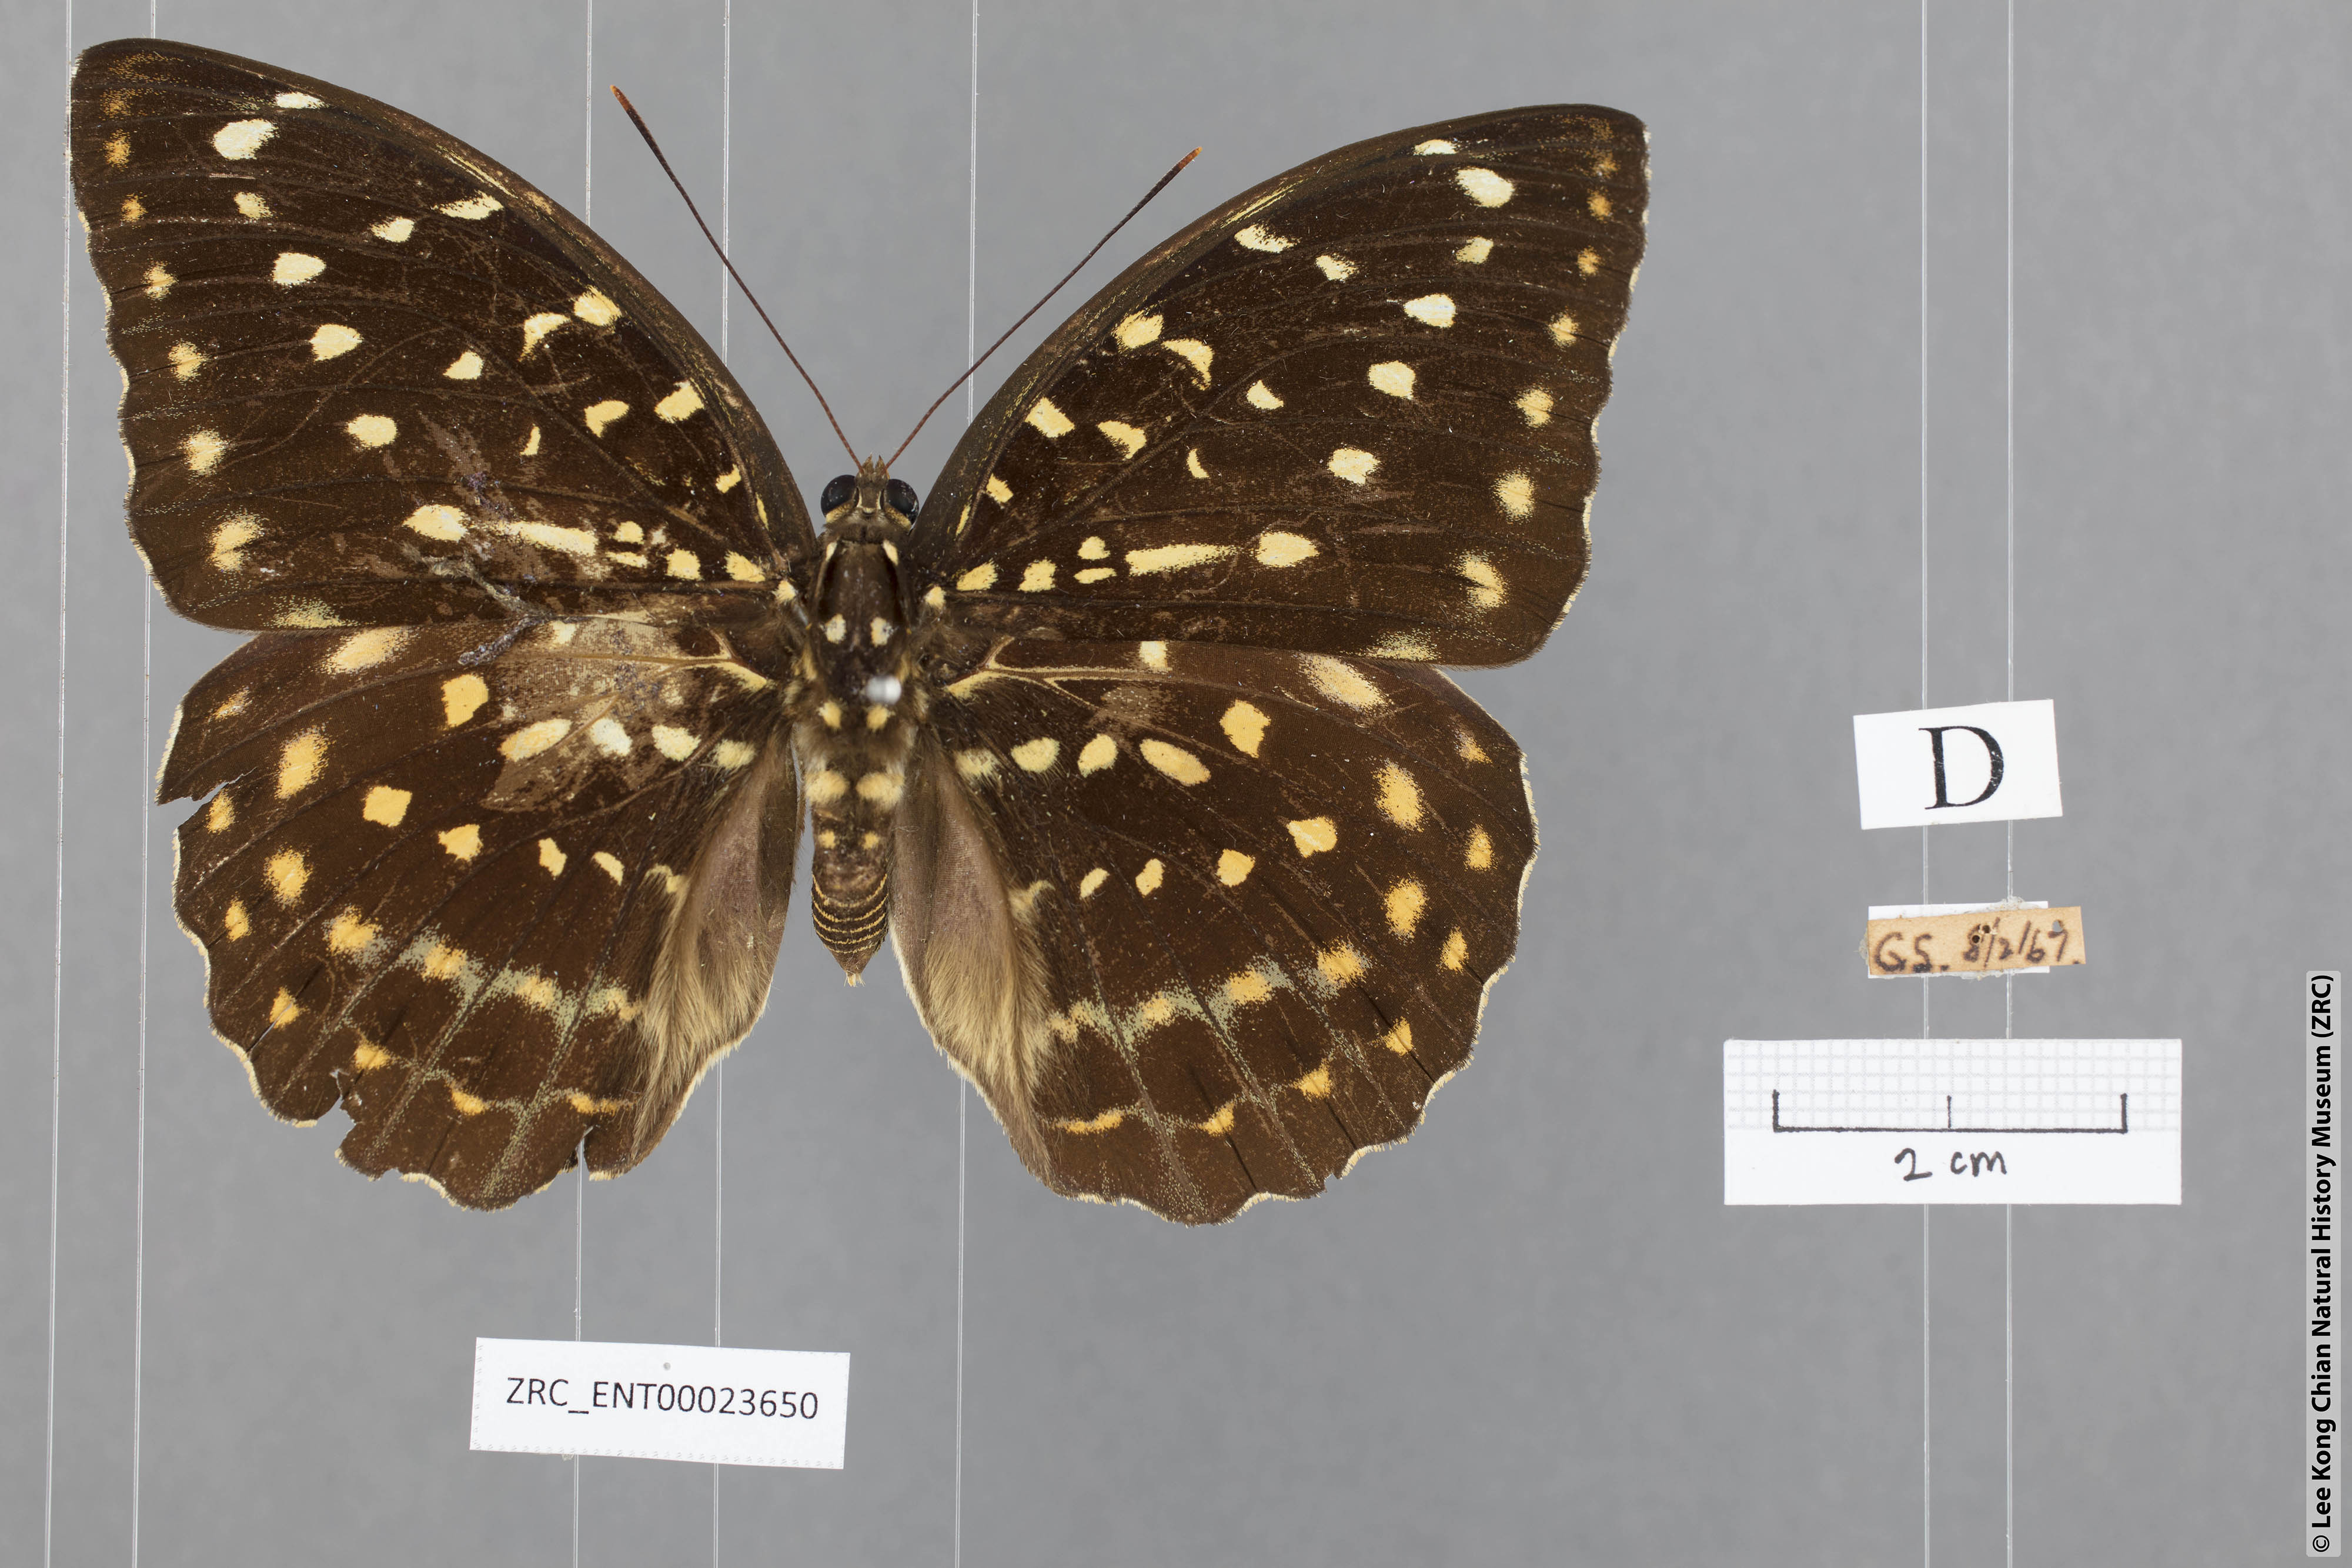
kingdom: Animalia
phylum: Arthropoda
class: Insecta
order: Lepidoptera
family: Nymphalidae
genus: Lexias
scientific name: Lexias pardalis
